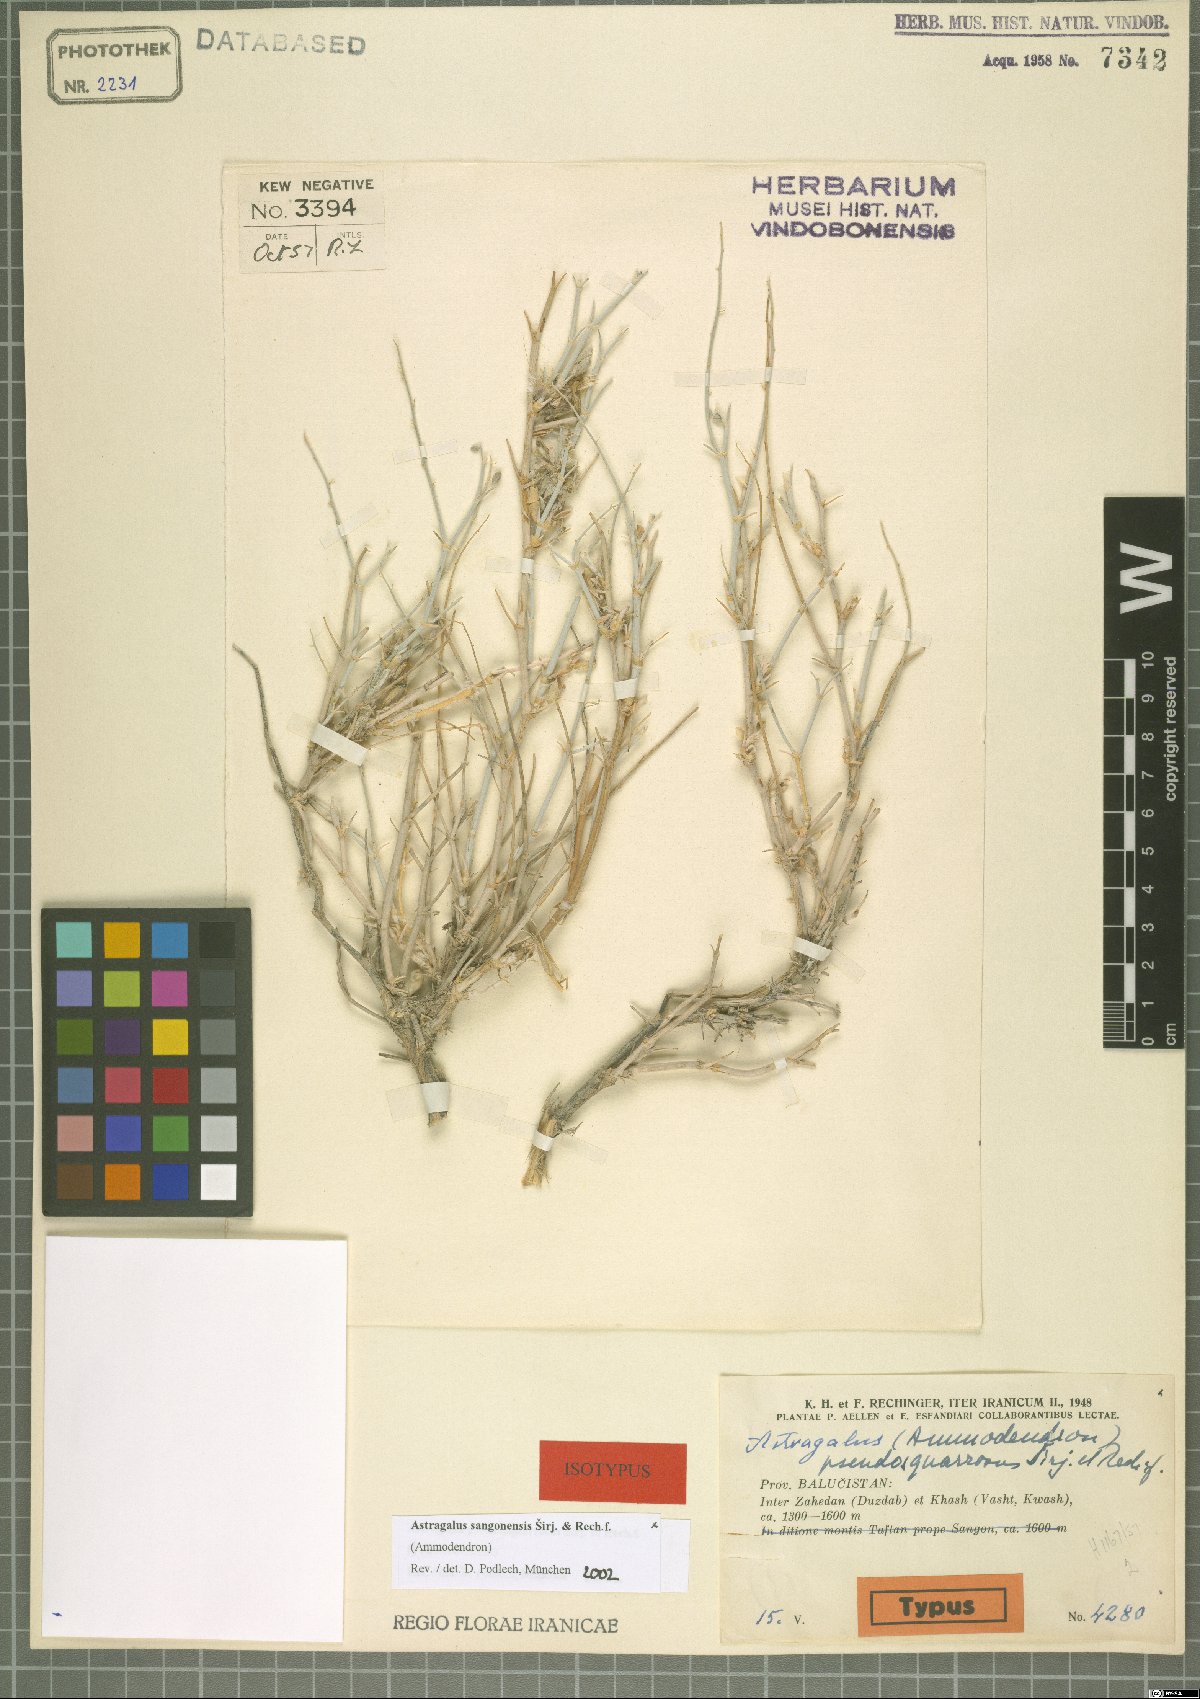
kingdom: Plantae
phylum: Tracheophyta
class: Magnoliopsida
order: Fabales
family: Fabaceae
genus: Astragalus
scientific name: Astragalus sangonensis
